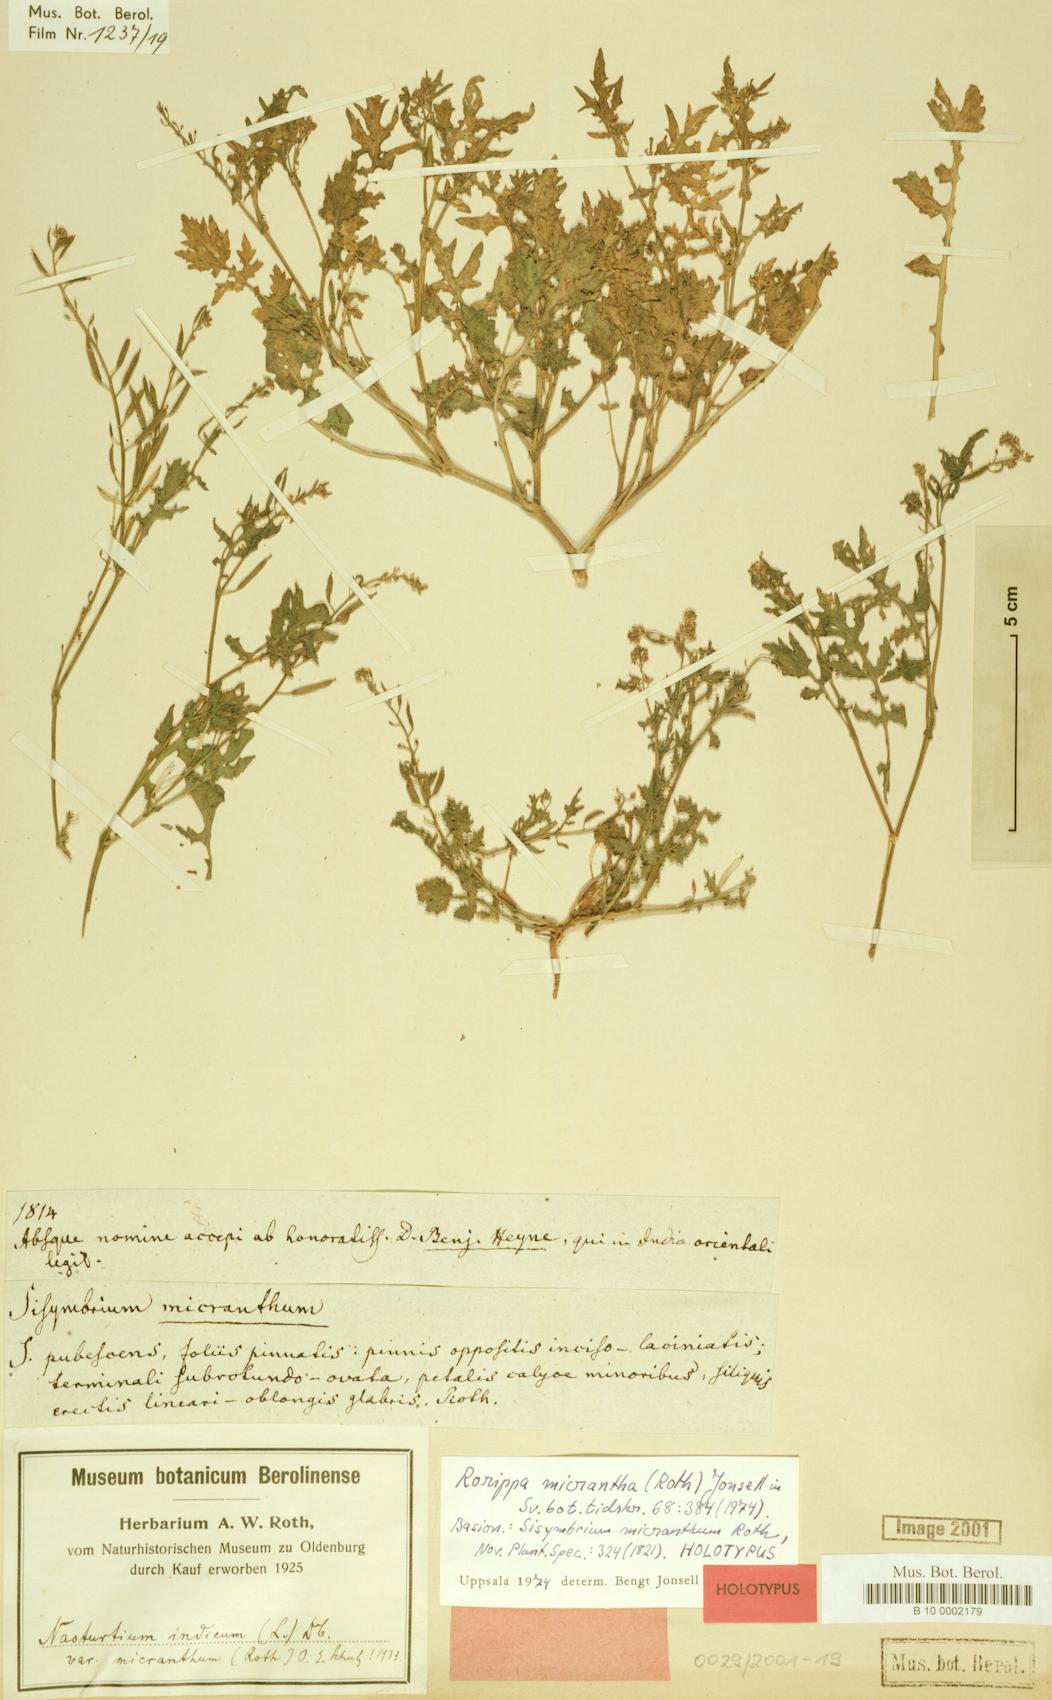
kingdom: Plantae
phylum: Tracheophyta
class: Magnoliopsida
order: Brassicales
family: Brassicaceae
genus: Rorippa
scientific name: Rorippa indica
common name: Variableleaf yellowcress
